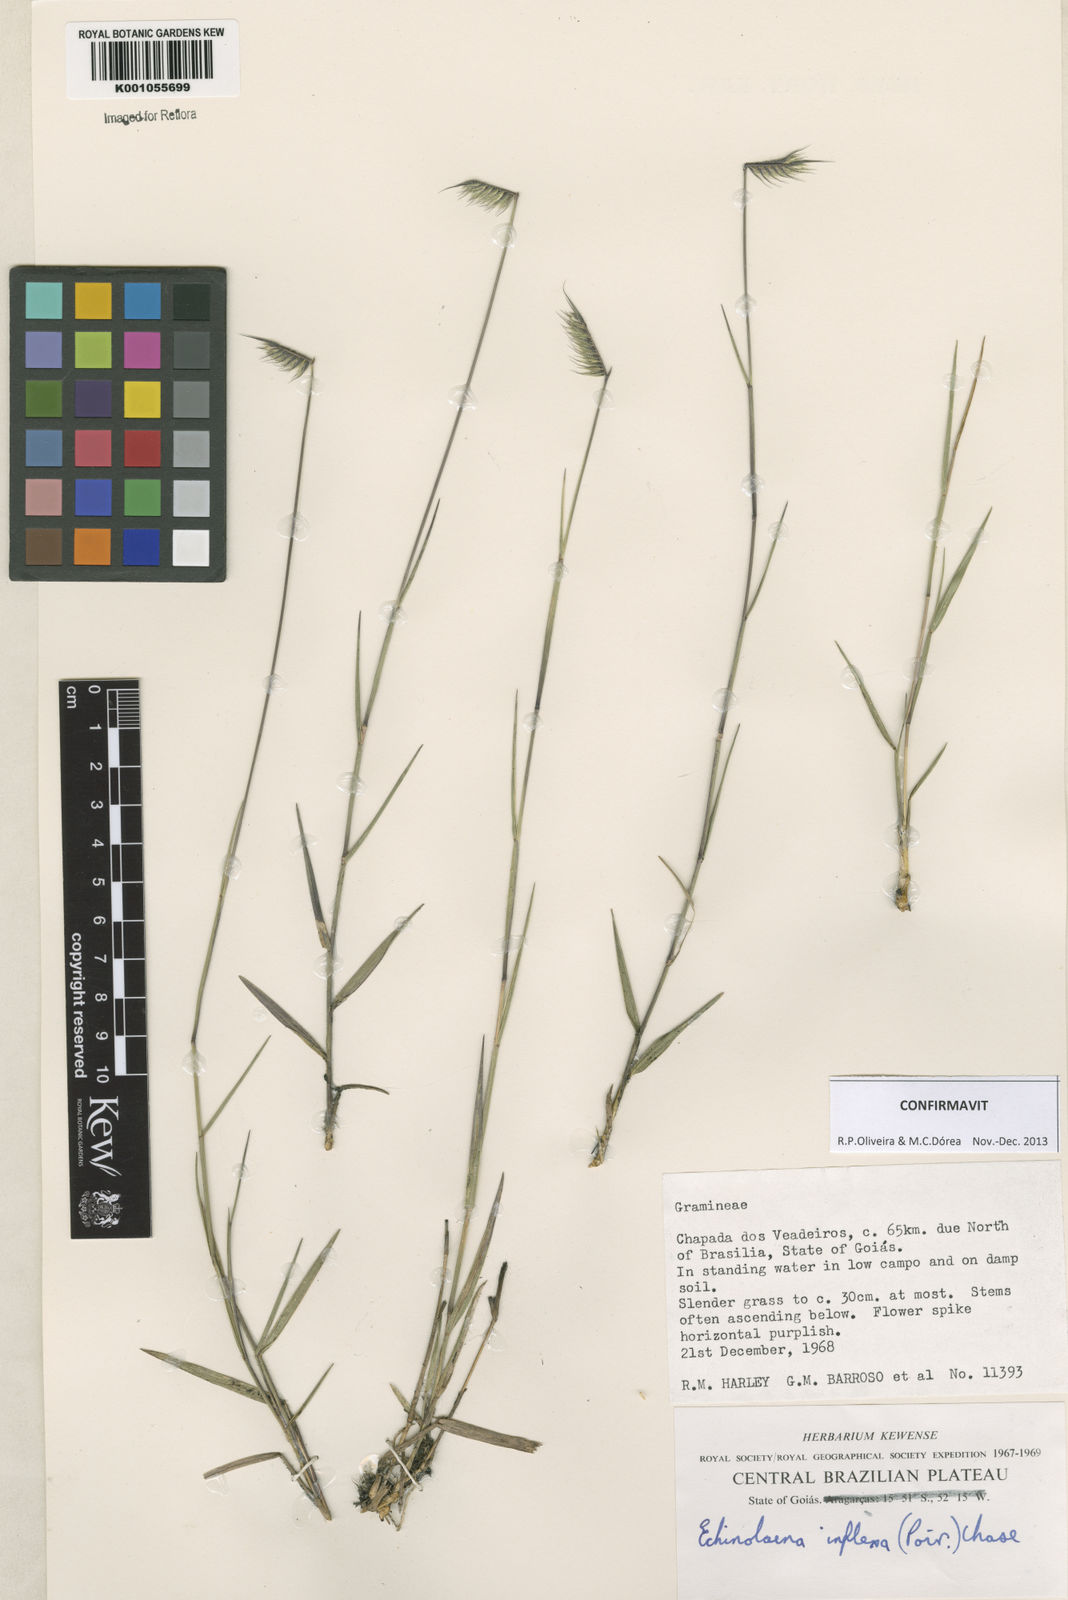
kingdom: Plantae
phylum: Tracheophyta
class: Liliopsida
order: Poales
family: Poaceae
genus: Echinolaena
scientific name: Echinolaena inflexa
